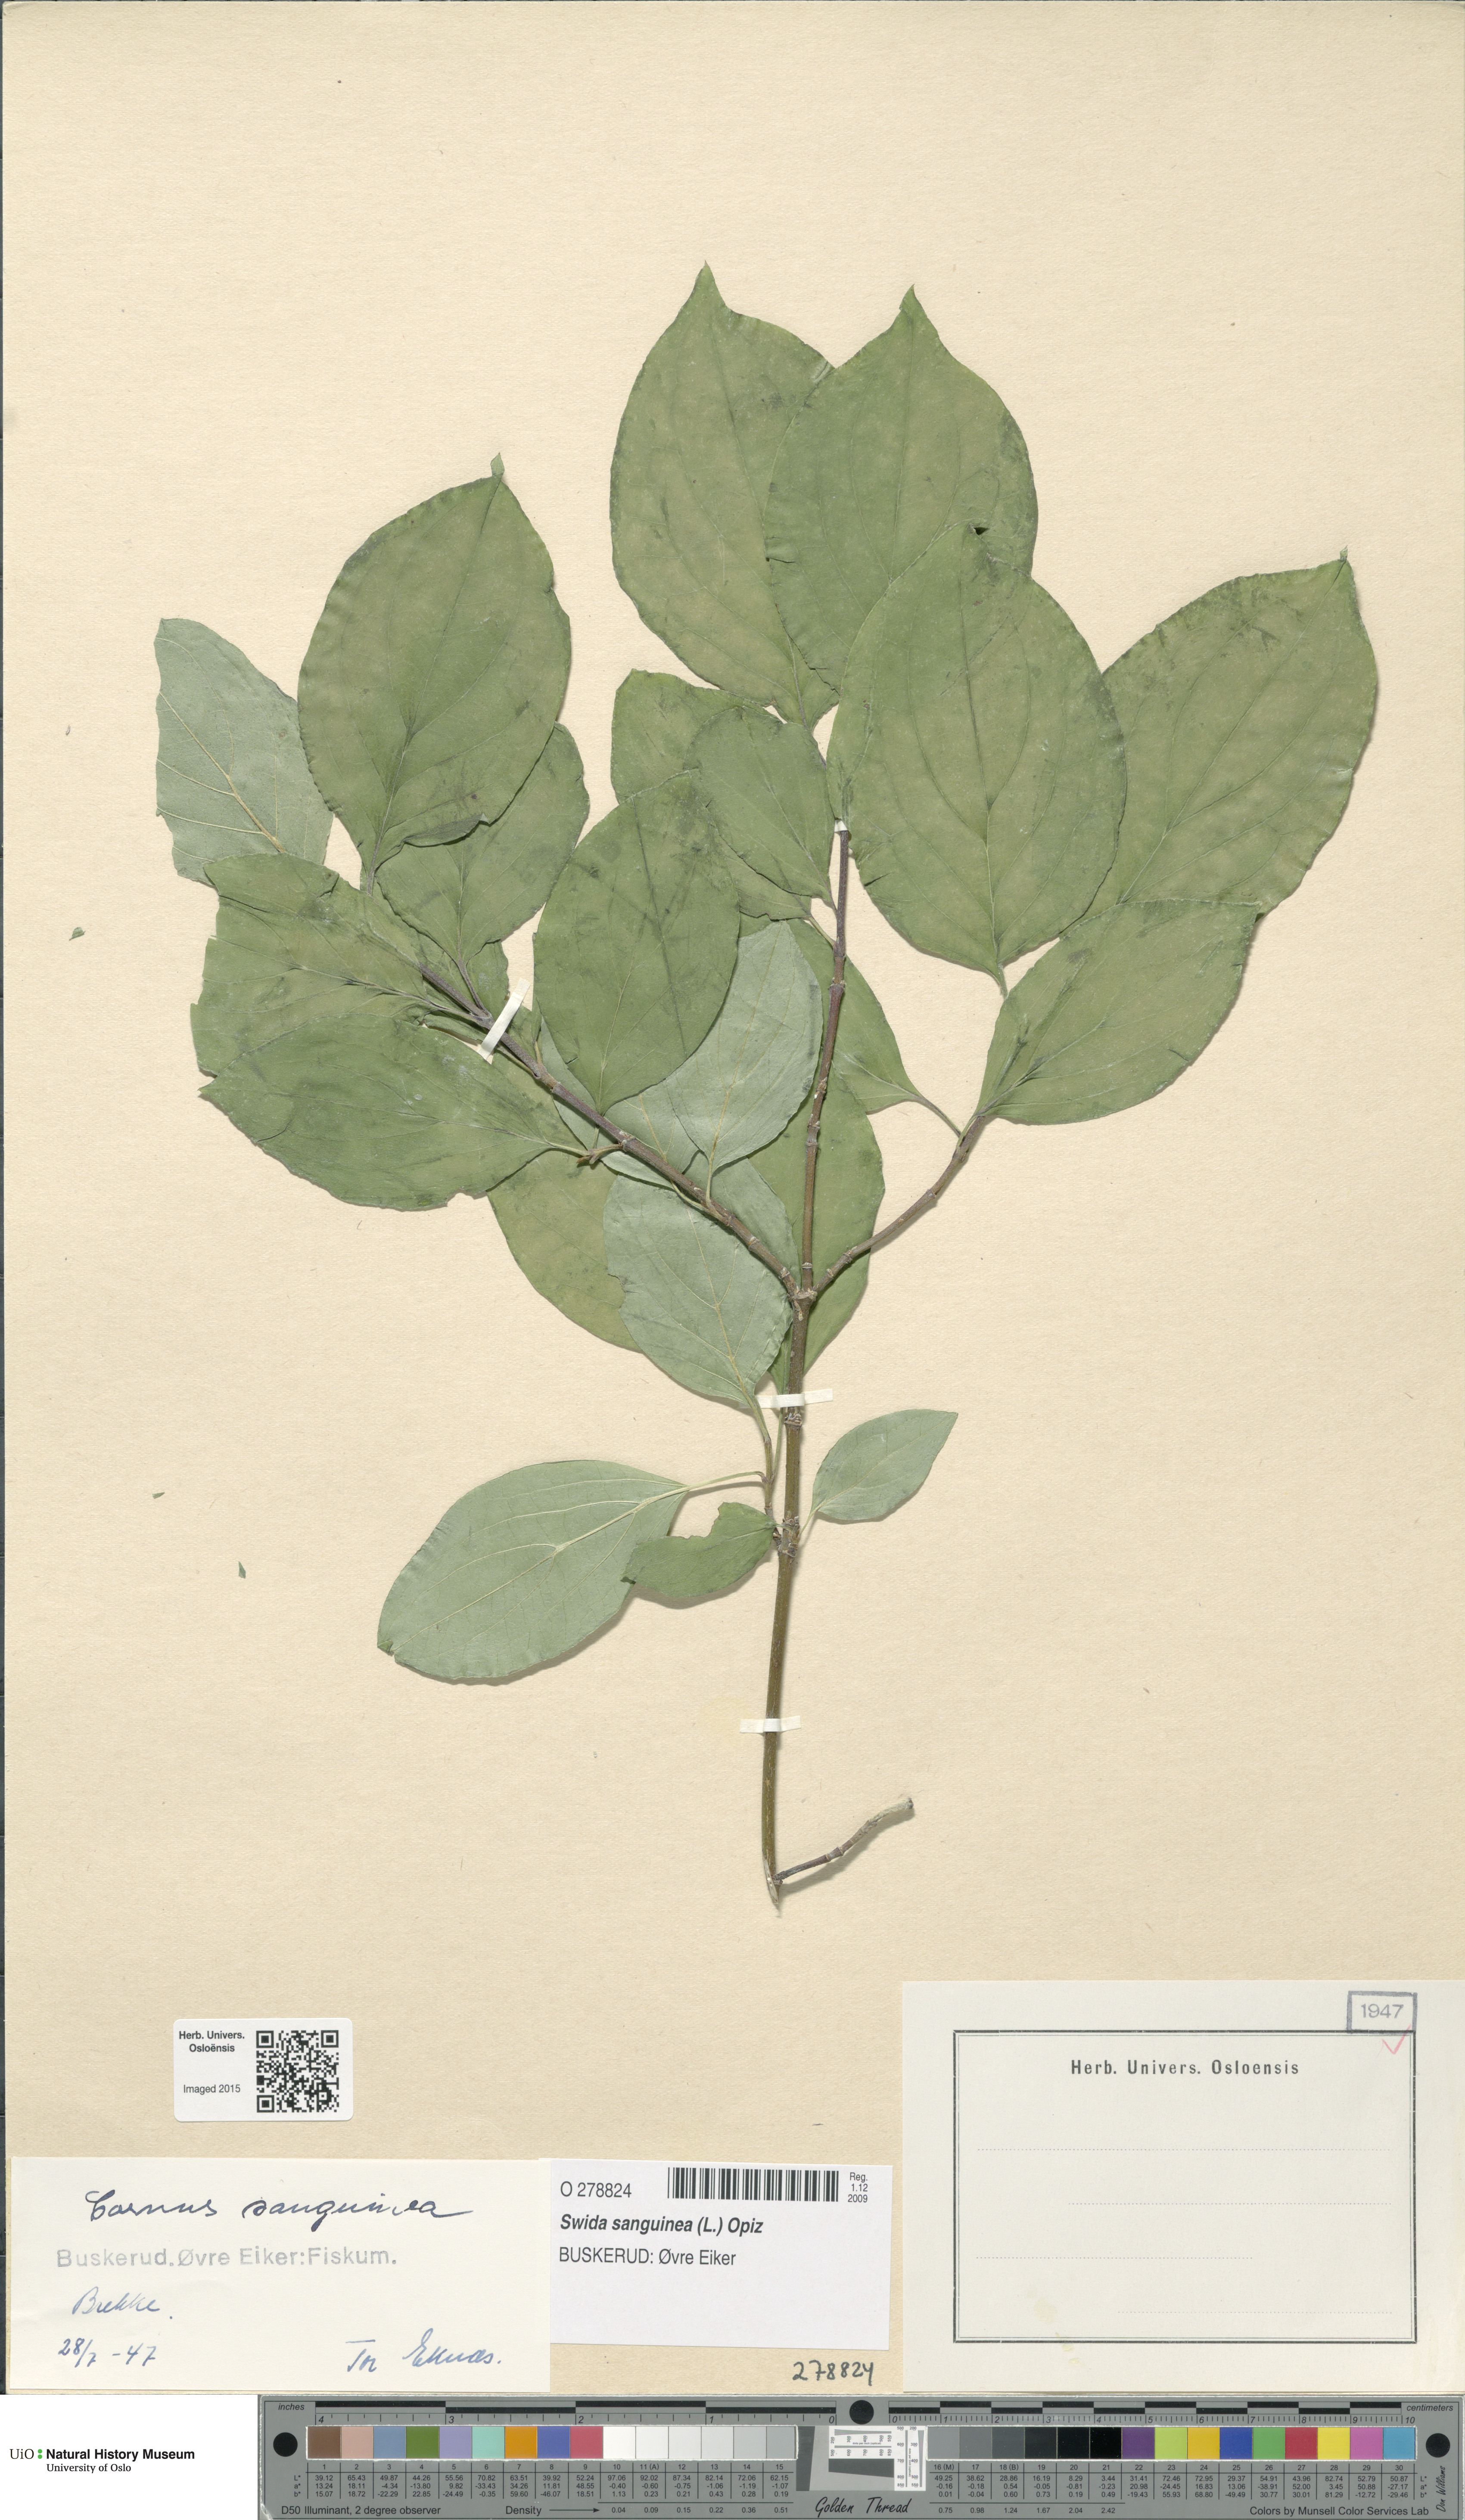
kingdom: Plantae
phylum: Tracheophyta
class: Magnoliopsida
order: Cornales
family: Cornaceae
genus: Cornus
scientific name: Cornus sanguinea
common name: Dogwood
